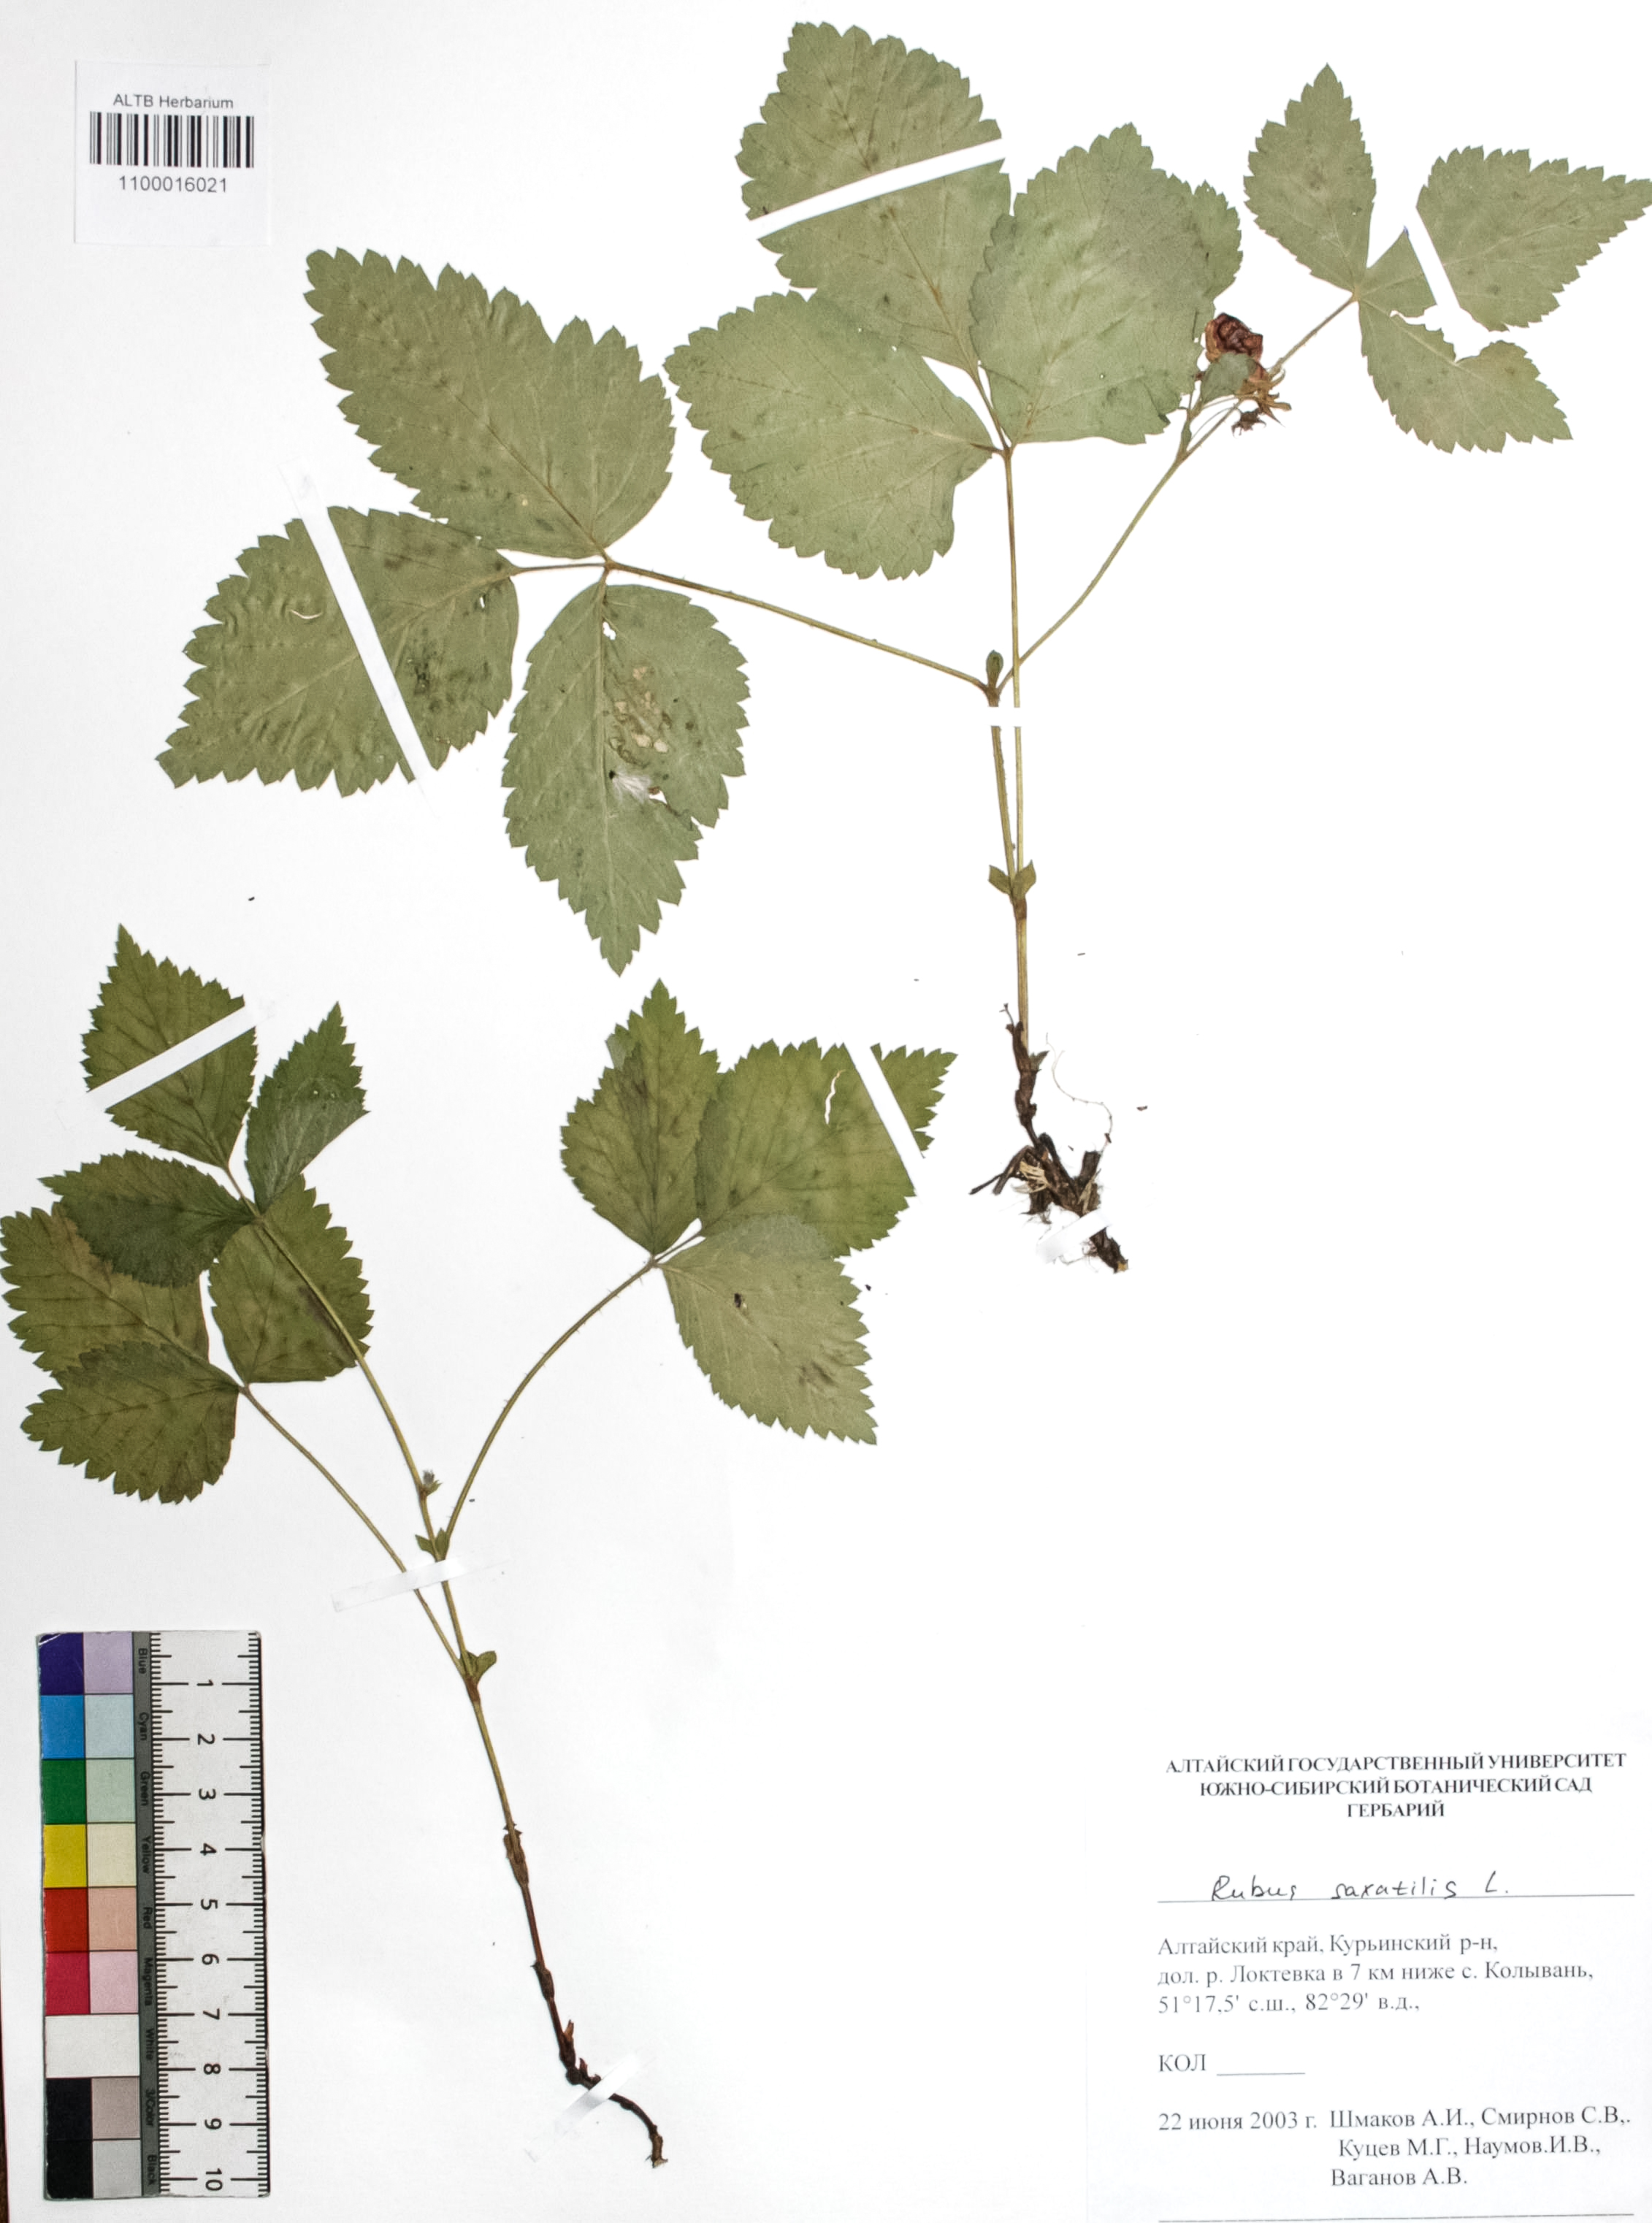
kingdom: Plantae
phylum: Tracheophyta
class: Magnoliopsida
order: Rosales
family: Rosaceae
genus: Rubus
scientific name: Rubus saxatilis
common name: Stone bramble
